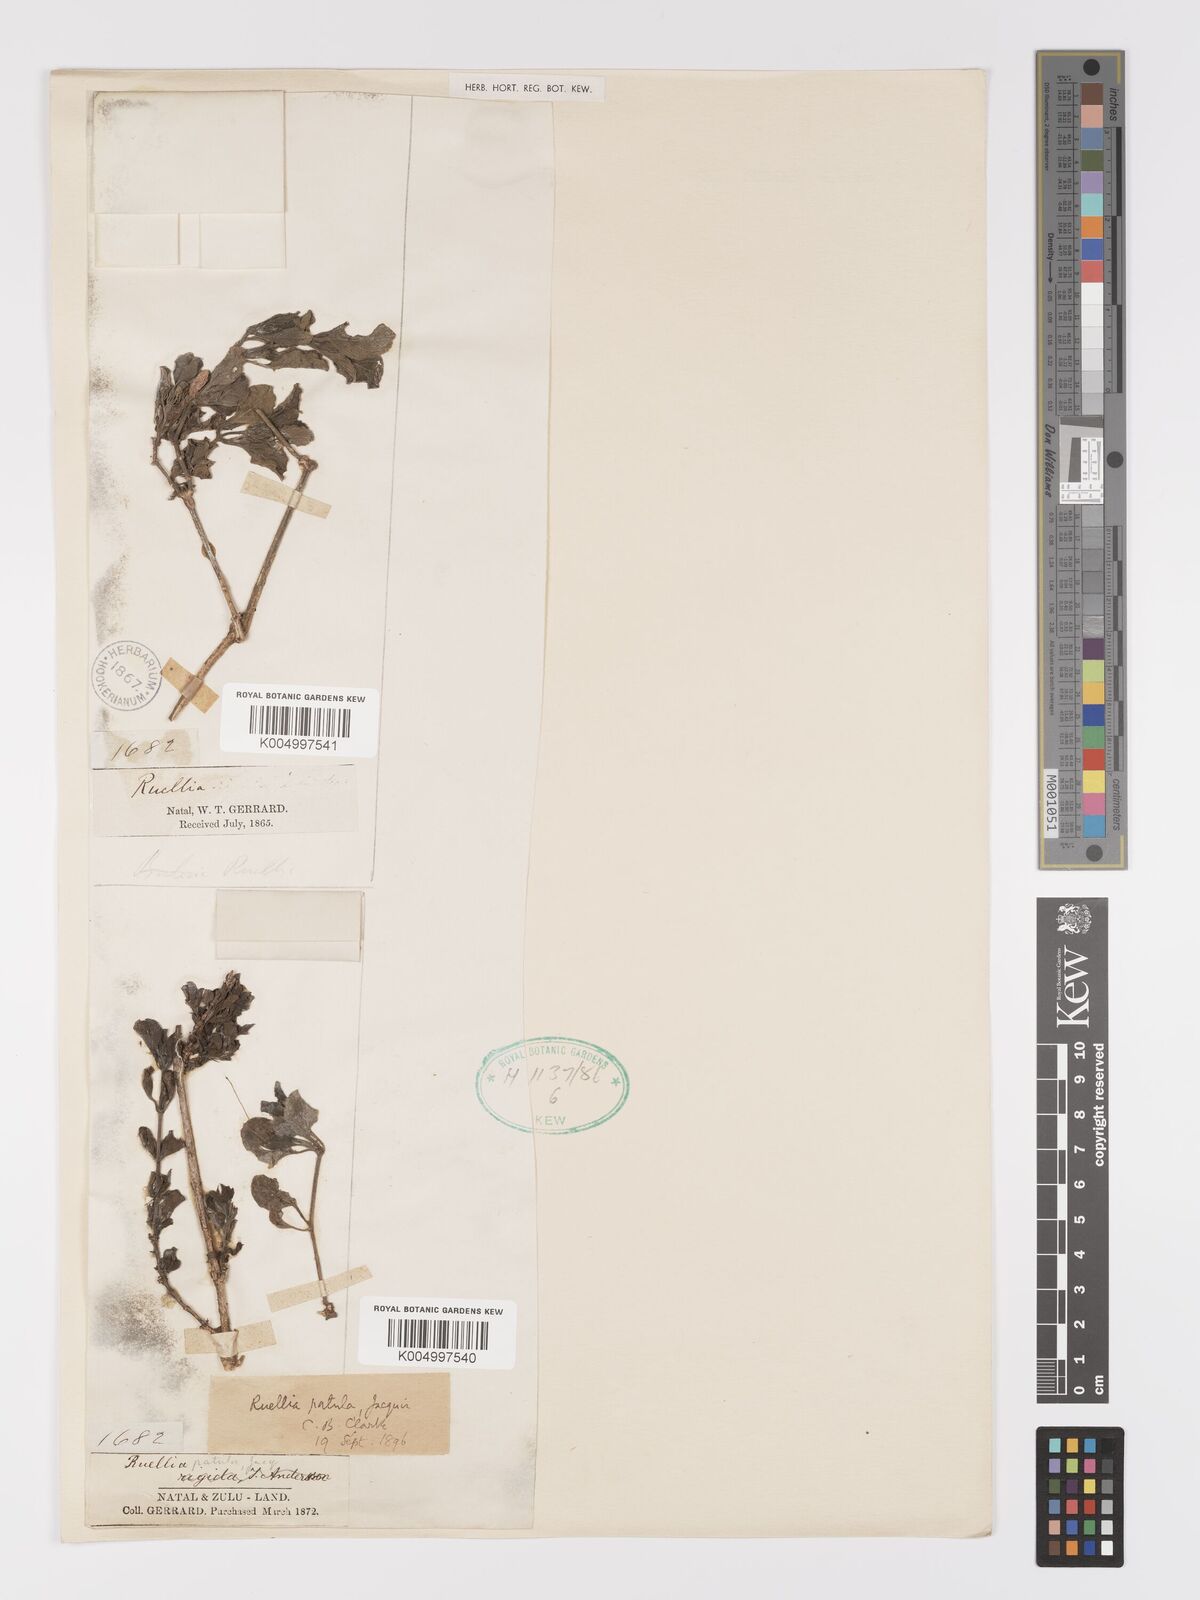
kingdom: Plantae
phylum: Tracheophyta
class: Magnoliopsida
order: Lamiales
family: Acanthaceae
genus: Ruellia
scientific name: Ruellia patula
